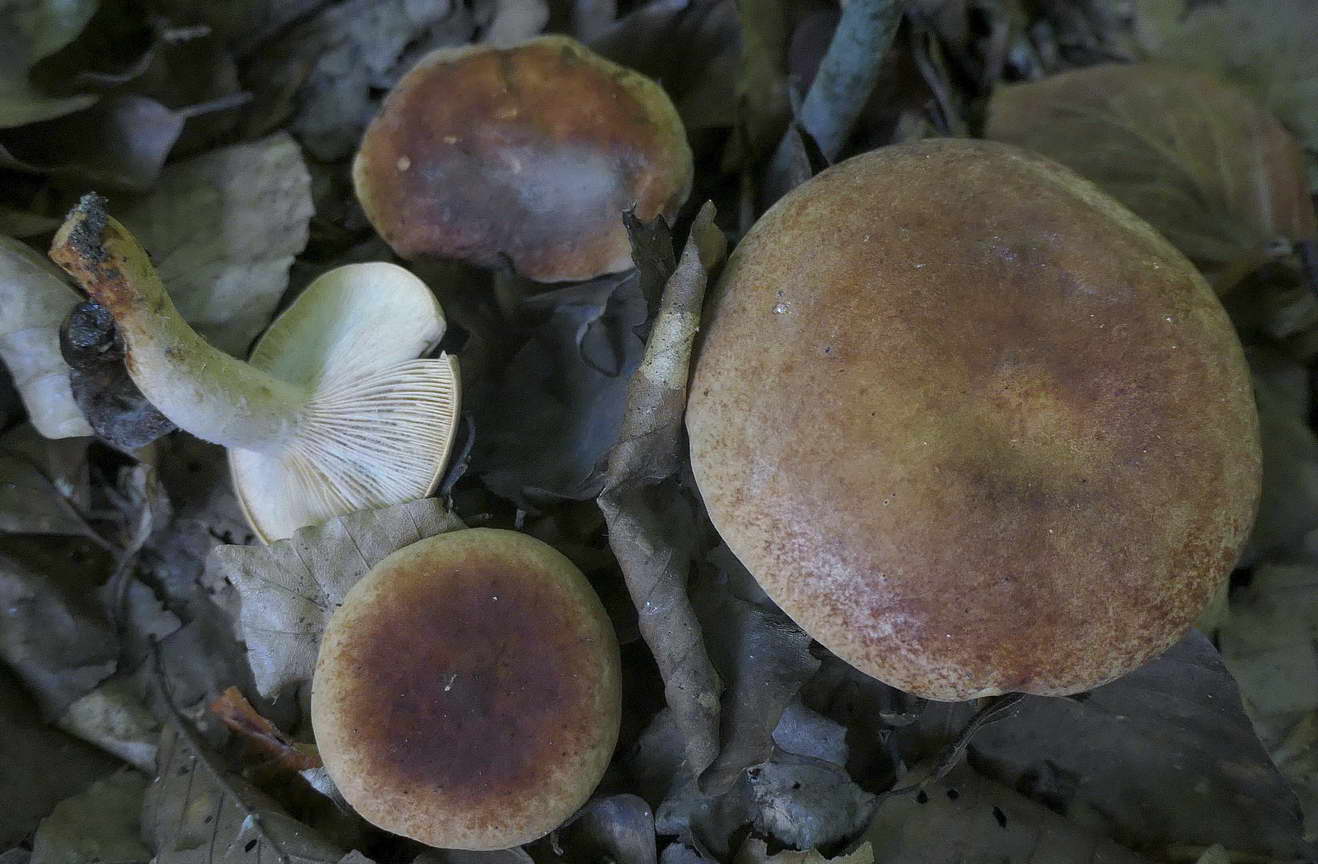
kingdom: Fungi
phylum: Basidiomycota
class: Agaricomycetes
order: Russulales
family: Russulaceae
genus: Lactarius
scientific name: Lactarius fulvissimus
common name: ræve-mælkehat
